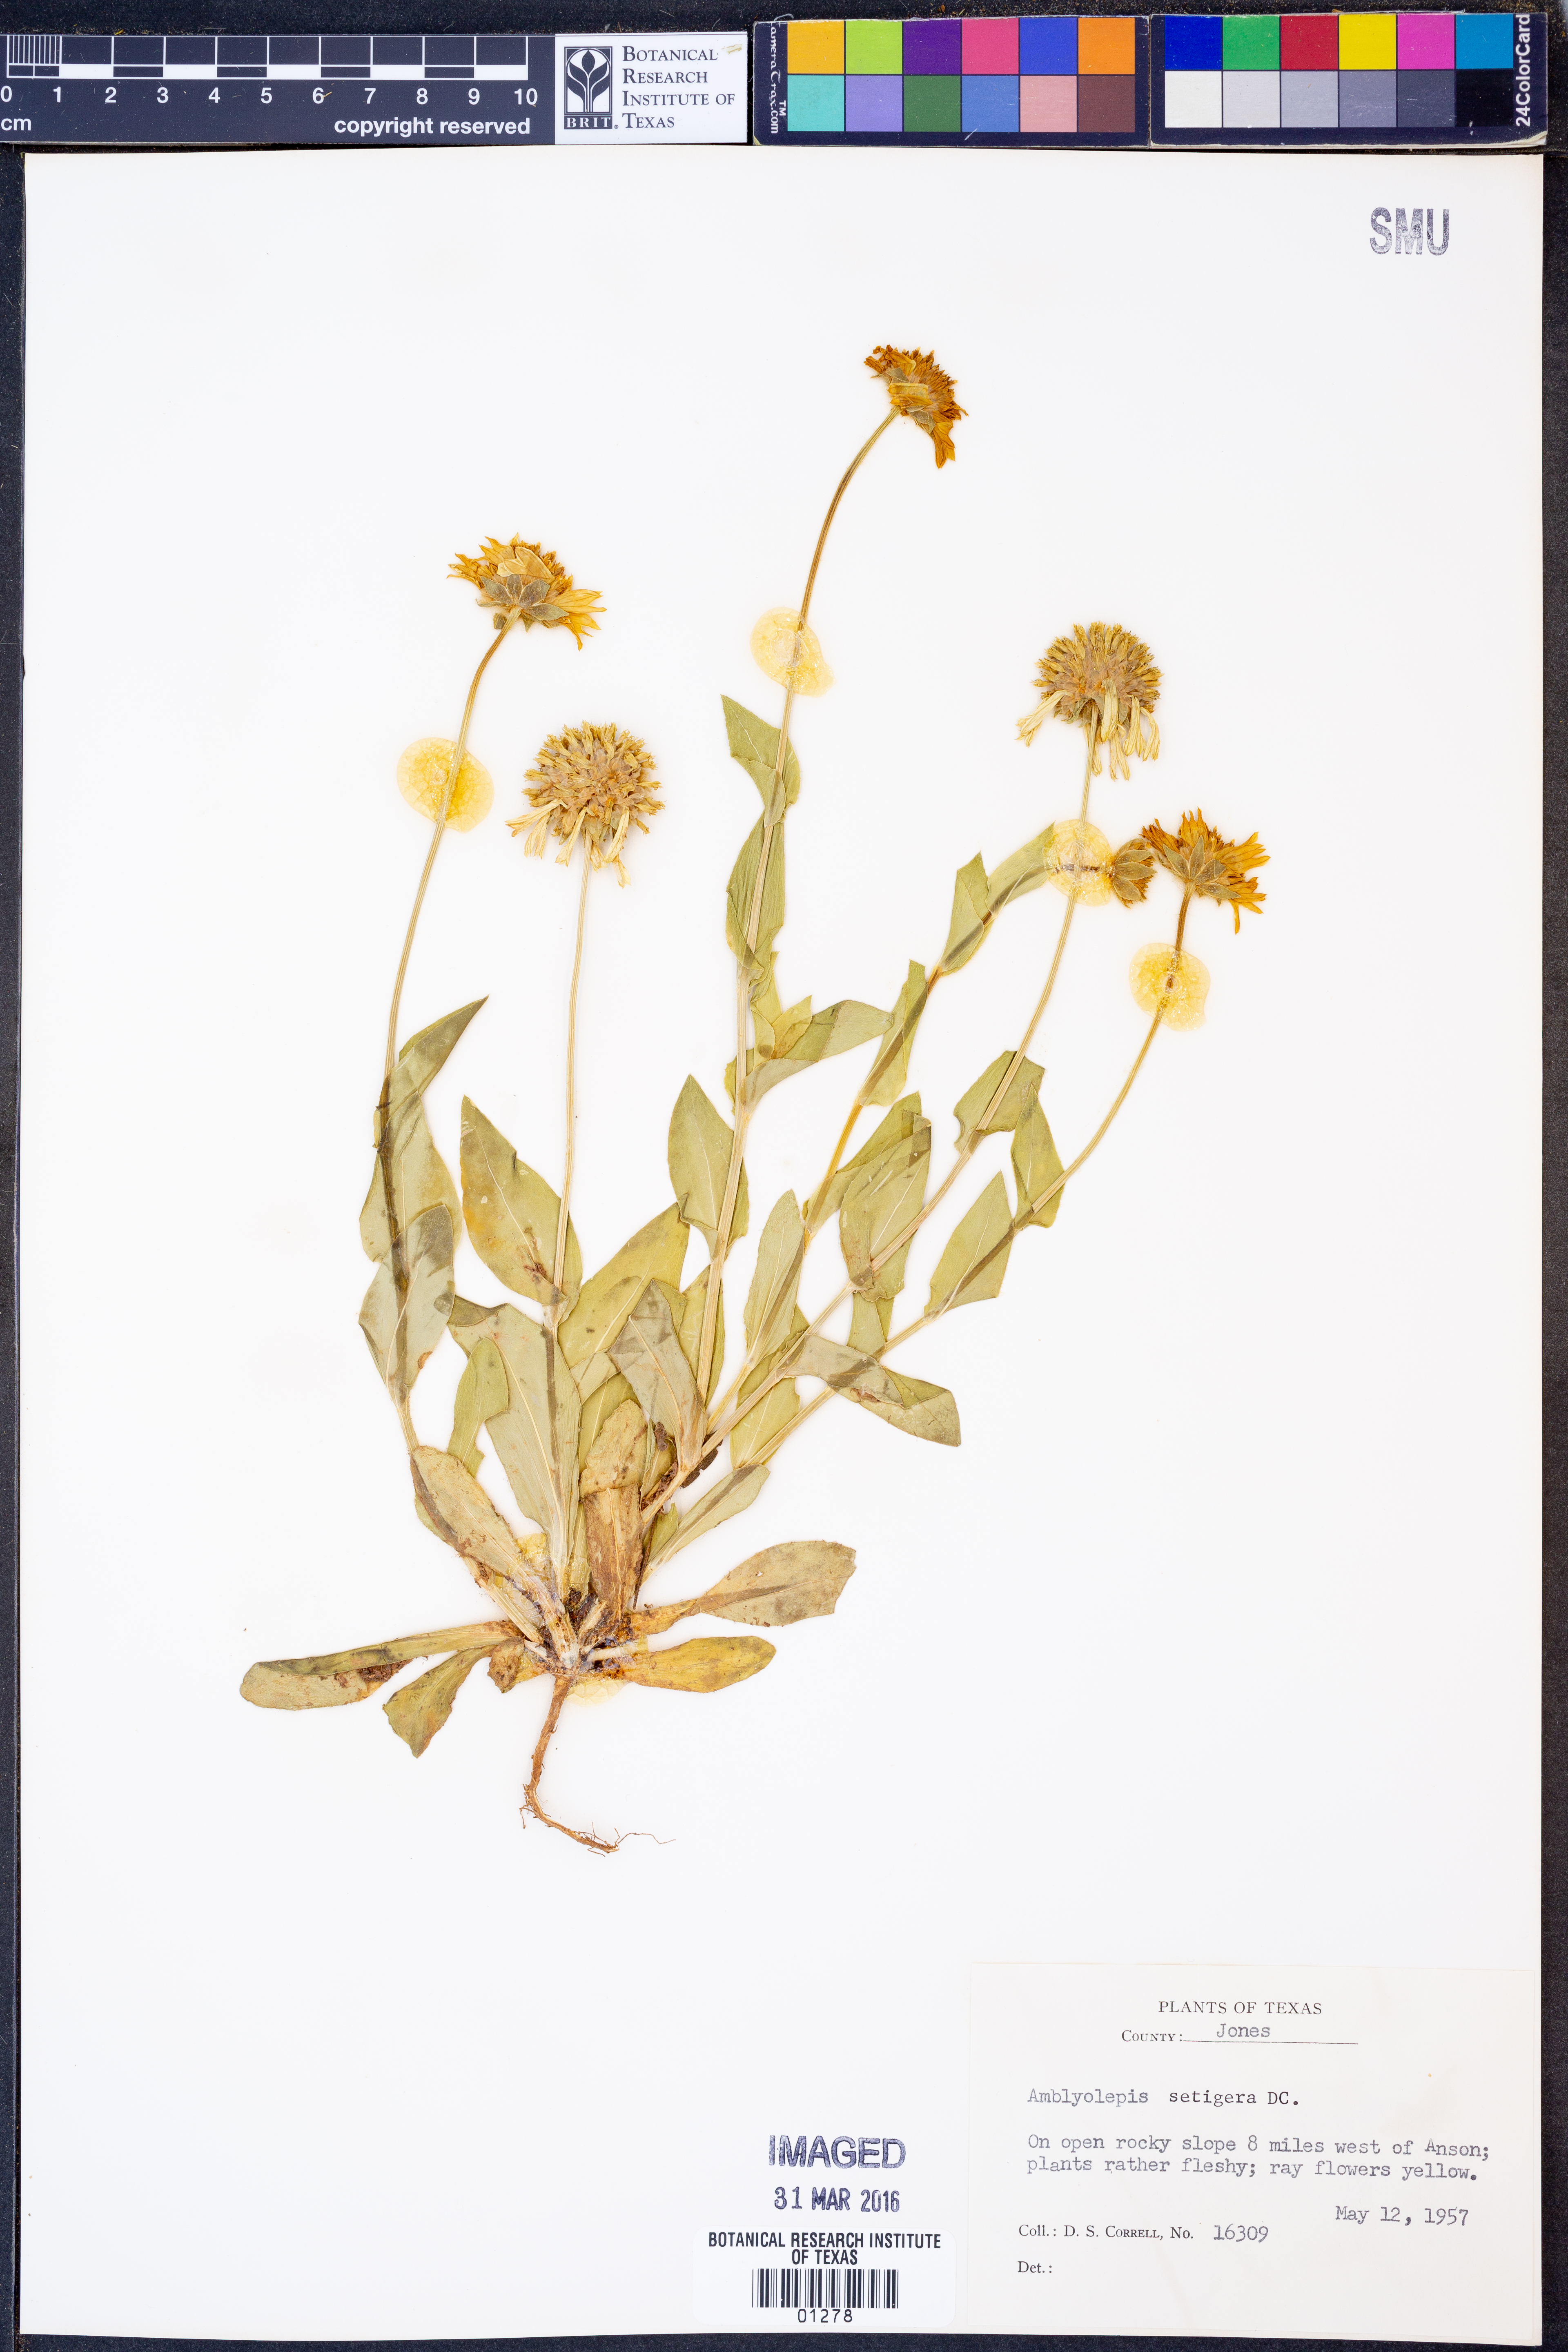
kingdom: Plantae
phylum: Tracheophyta
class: Magnoliopsida
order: Asterales
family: Asteraceae
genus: Amblyolepis
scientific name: Amblyolepis setigera
